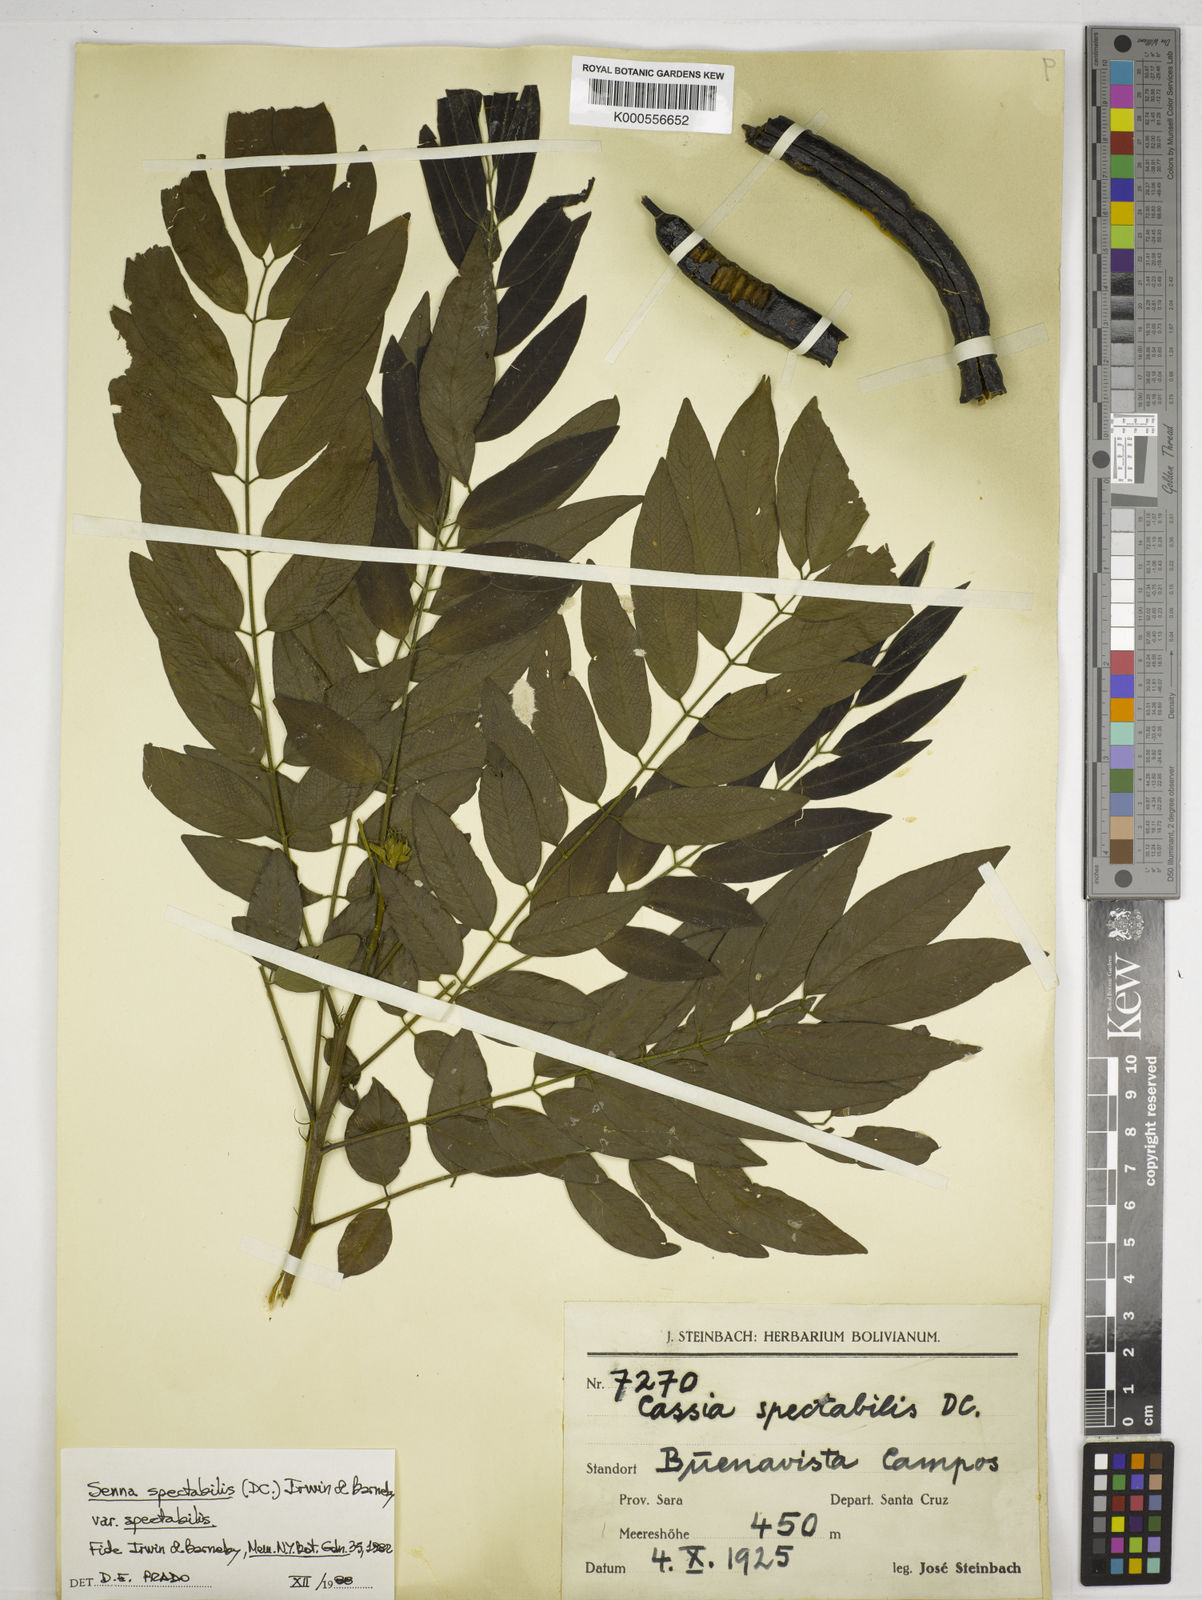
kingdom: Plantae
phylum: Tracheophyta
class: Magnoliopsida
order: Fabales
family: Fabaceae
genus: Senna
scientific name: Senna spectabilis
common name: Casia amarilla
